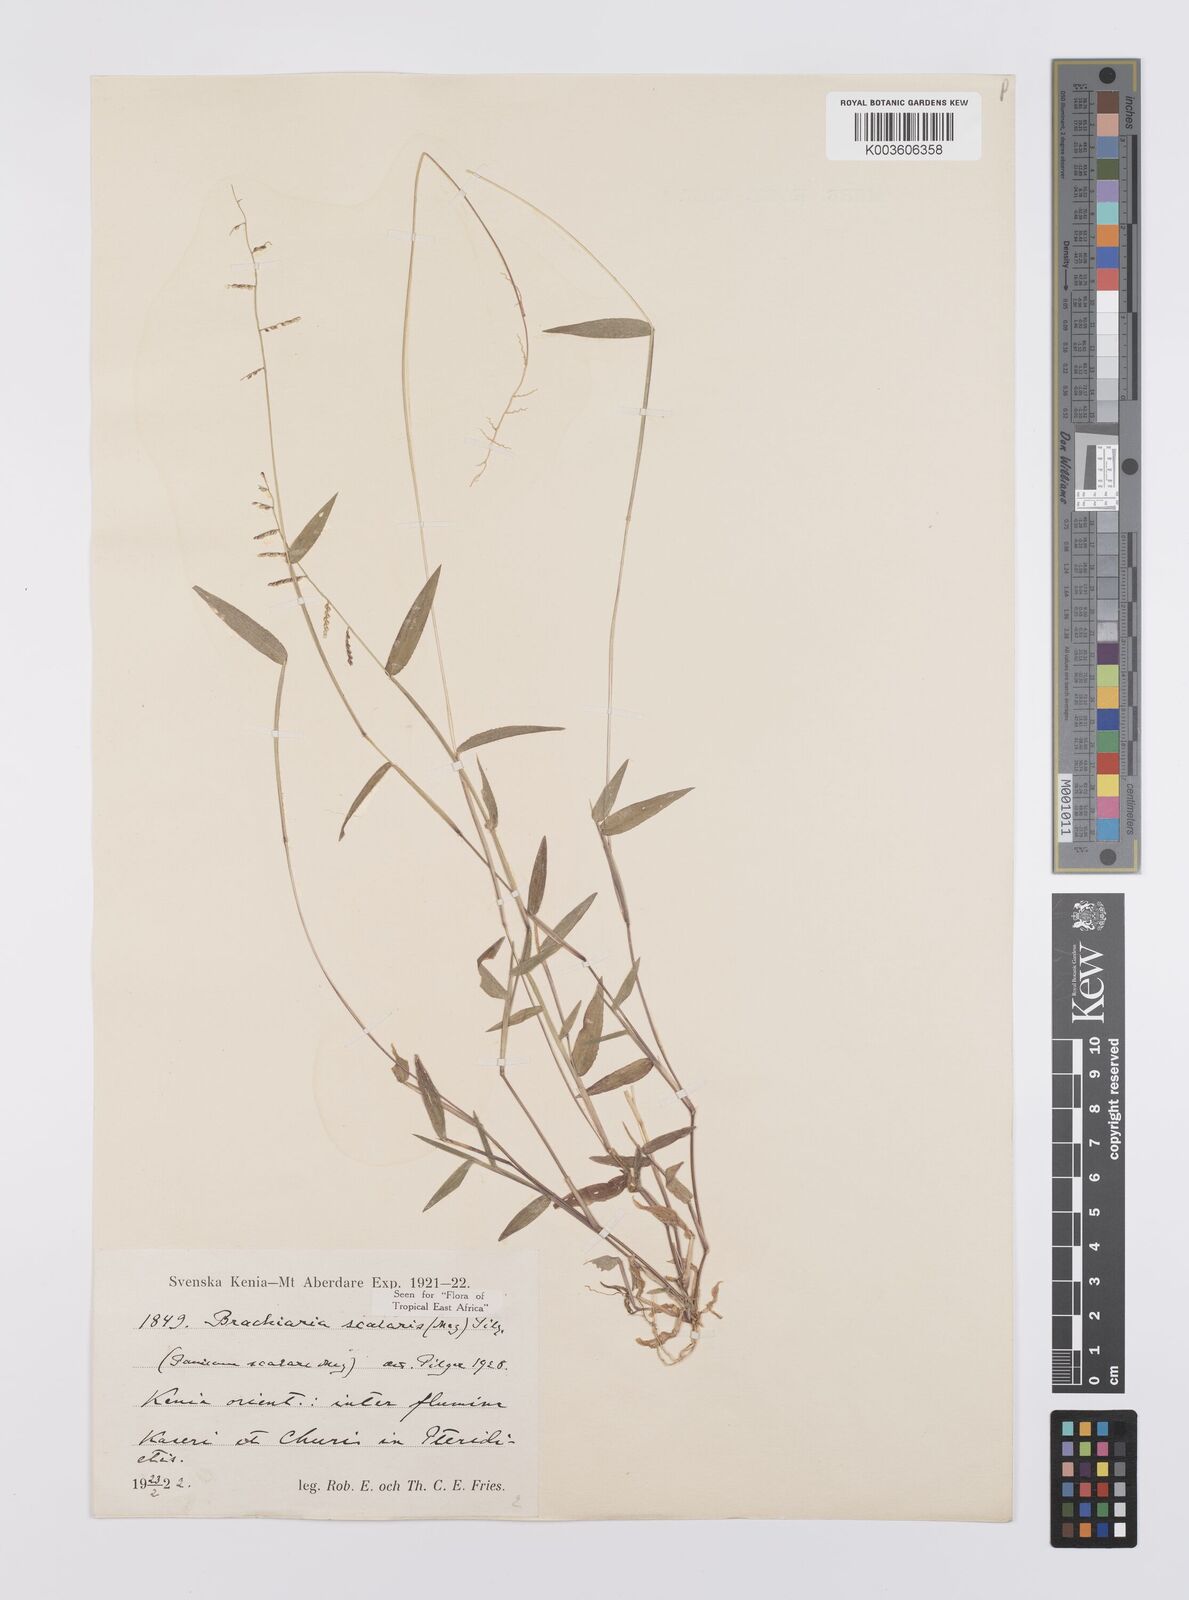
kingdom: Plantae
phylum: Tracheophyta
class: Liliopsida
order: Poales
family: Poaceae
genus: Urochloa
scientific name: Urochloa comata
